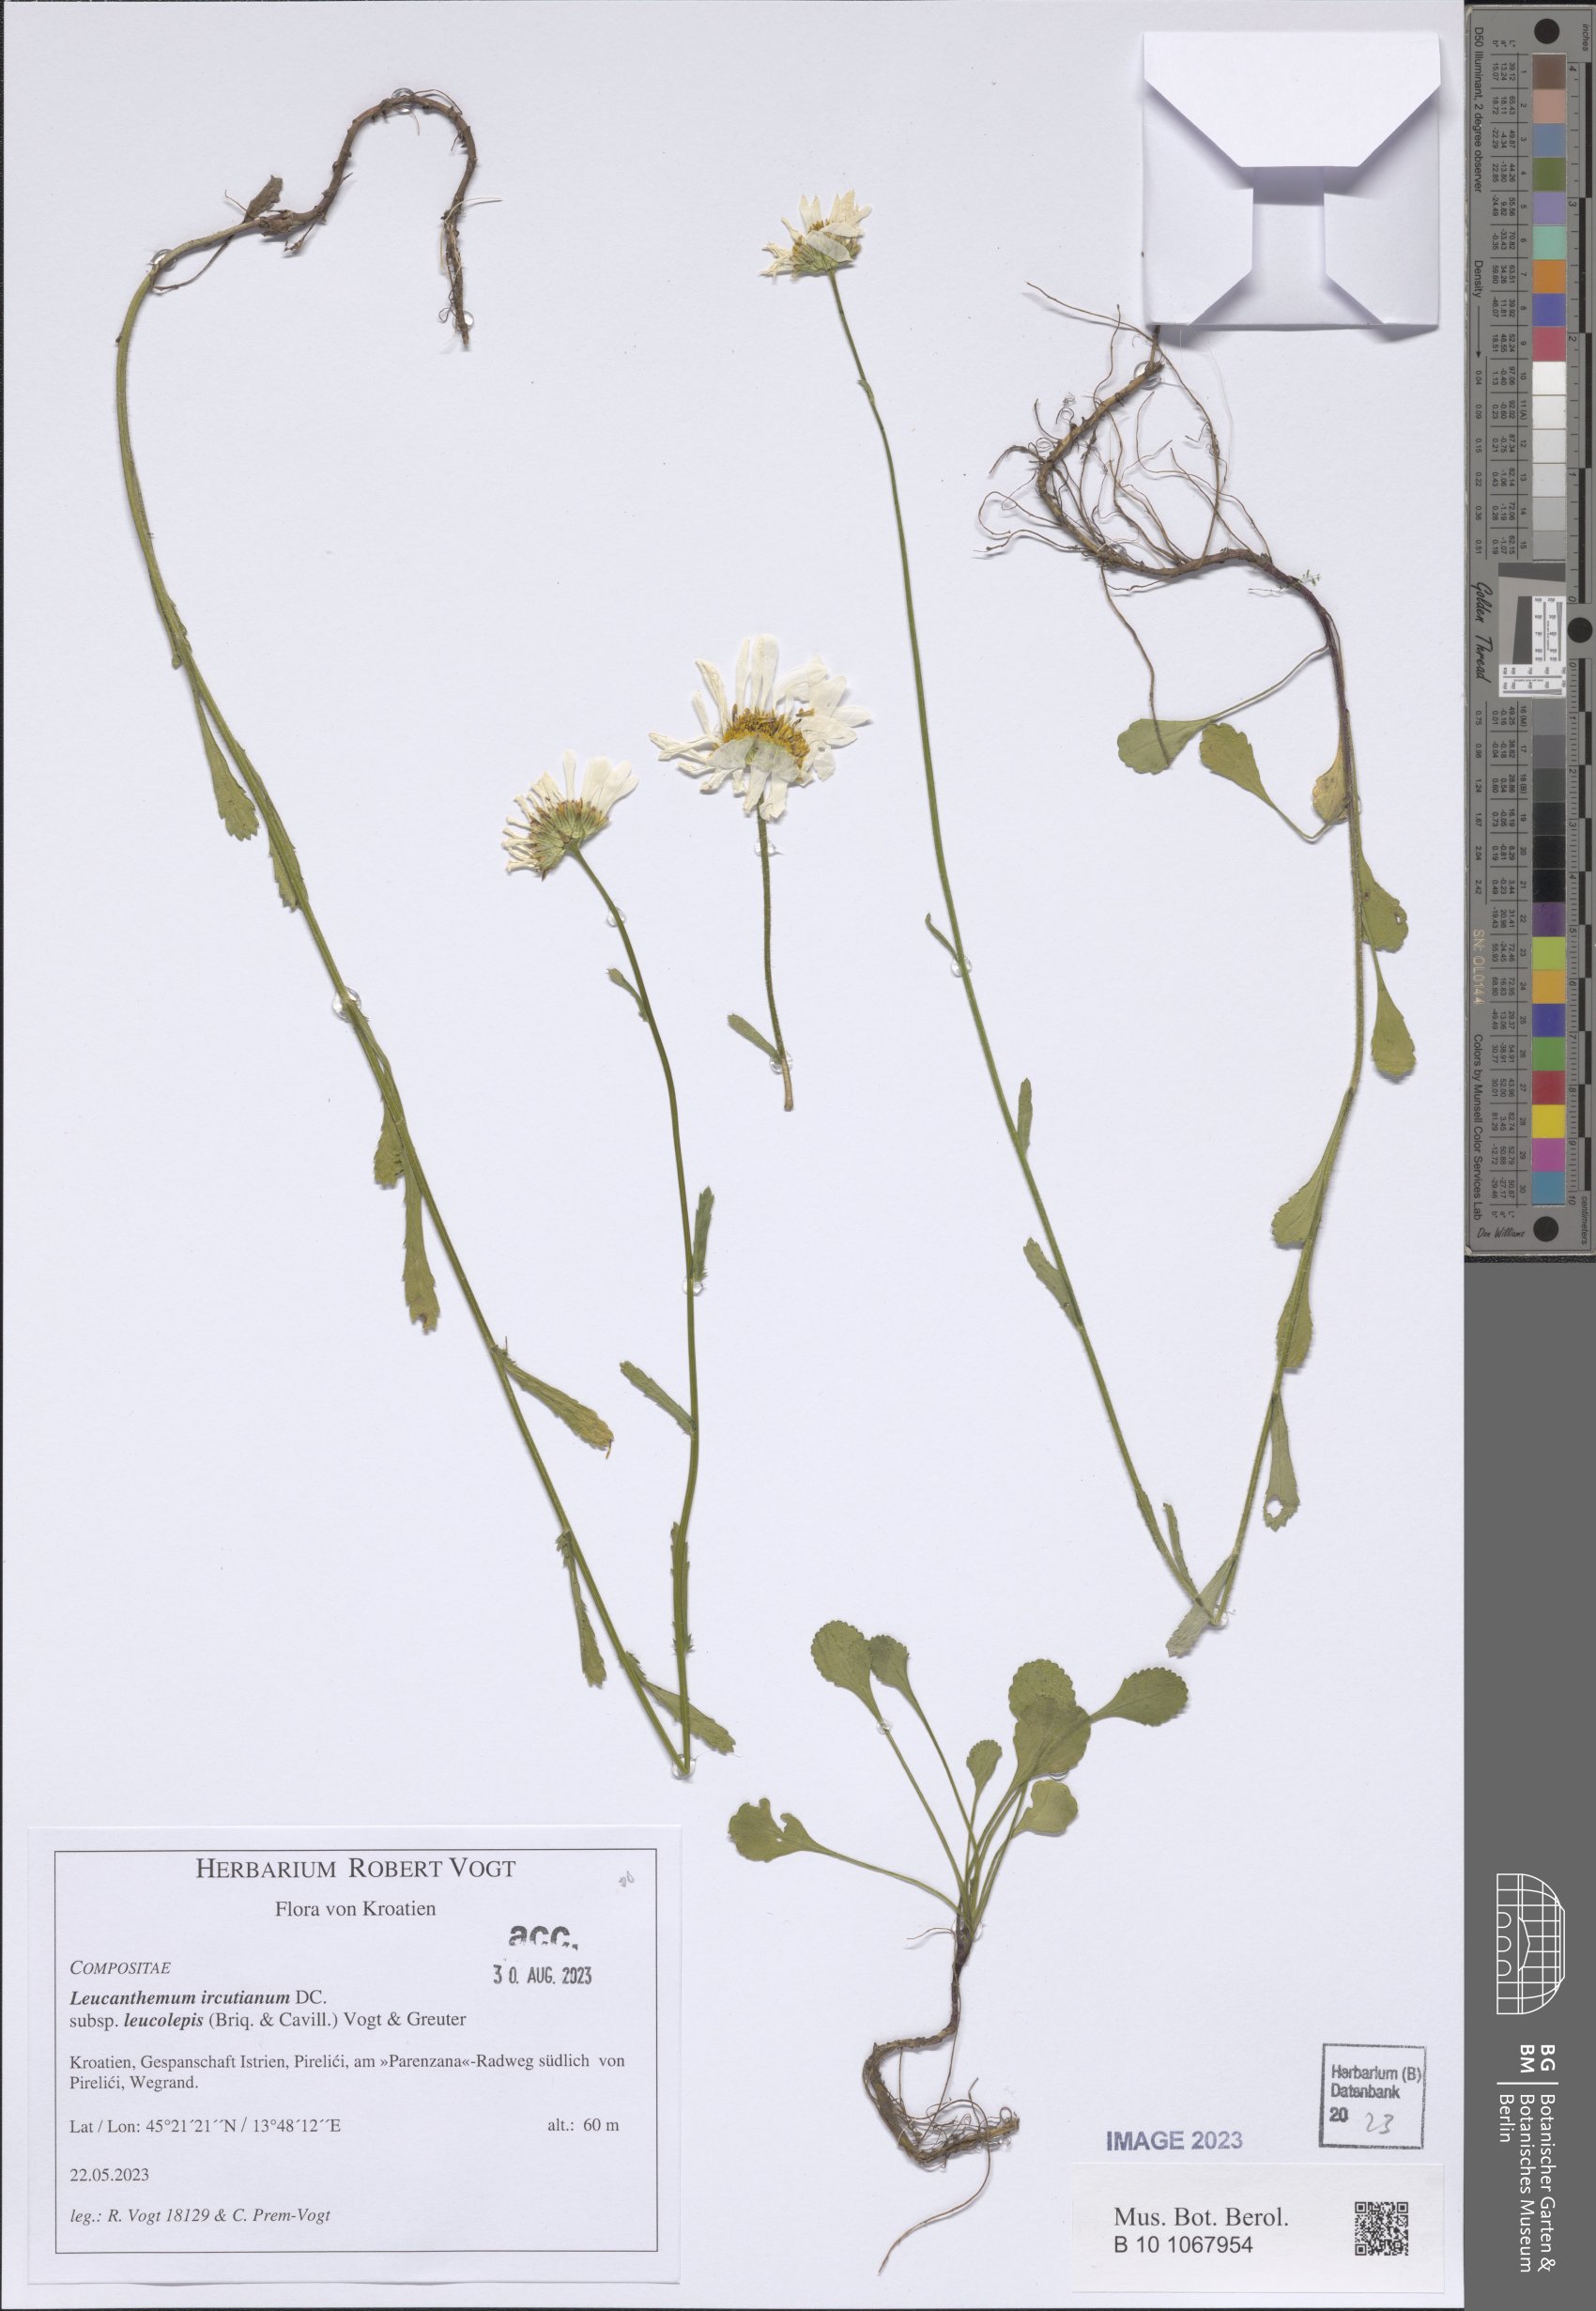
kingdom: Plantae
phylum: Tracheophyta
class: Magnoliopsida
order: Asterales
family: Asteraceae
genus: Leucanthemum
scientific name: Leucanthemum ircutianum
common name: Daisy
